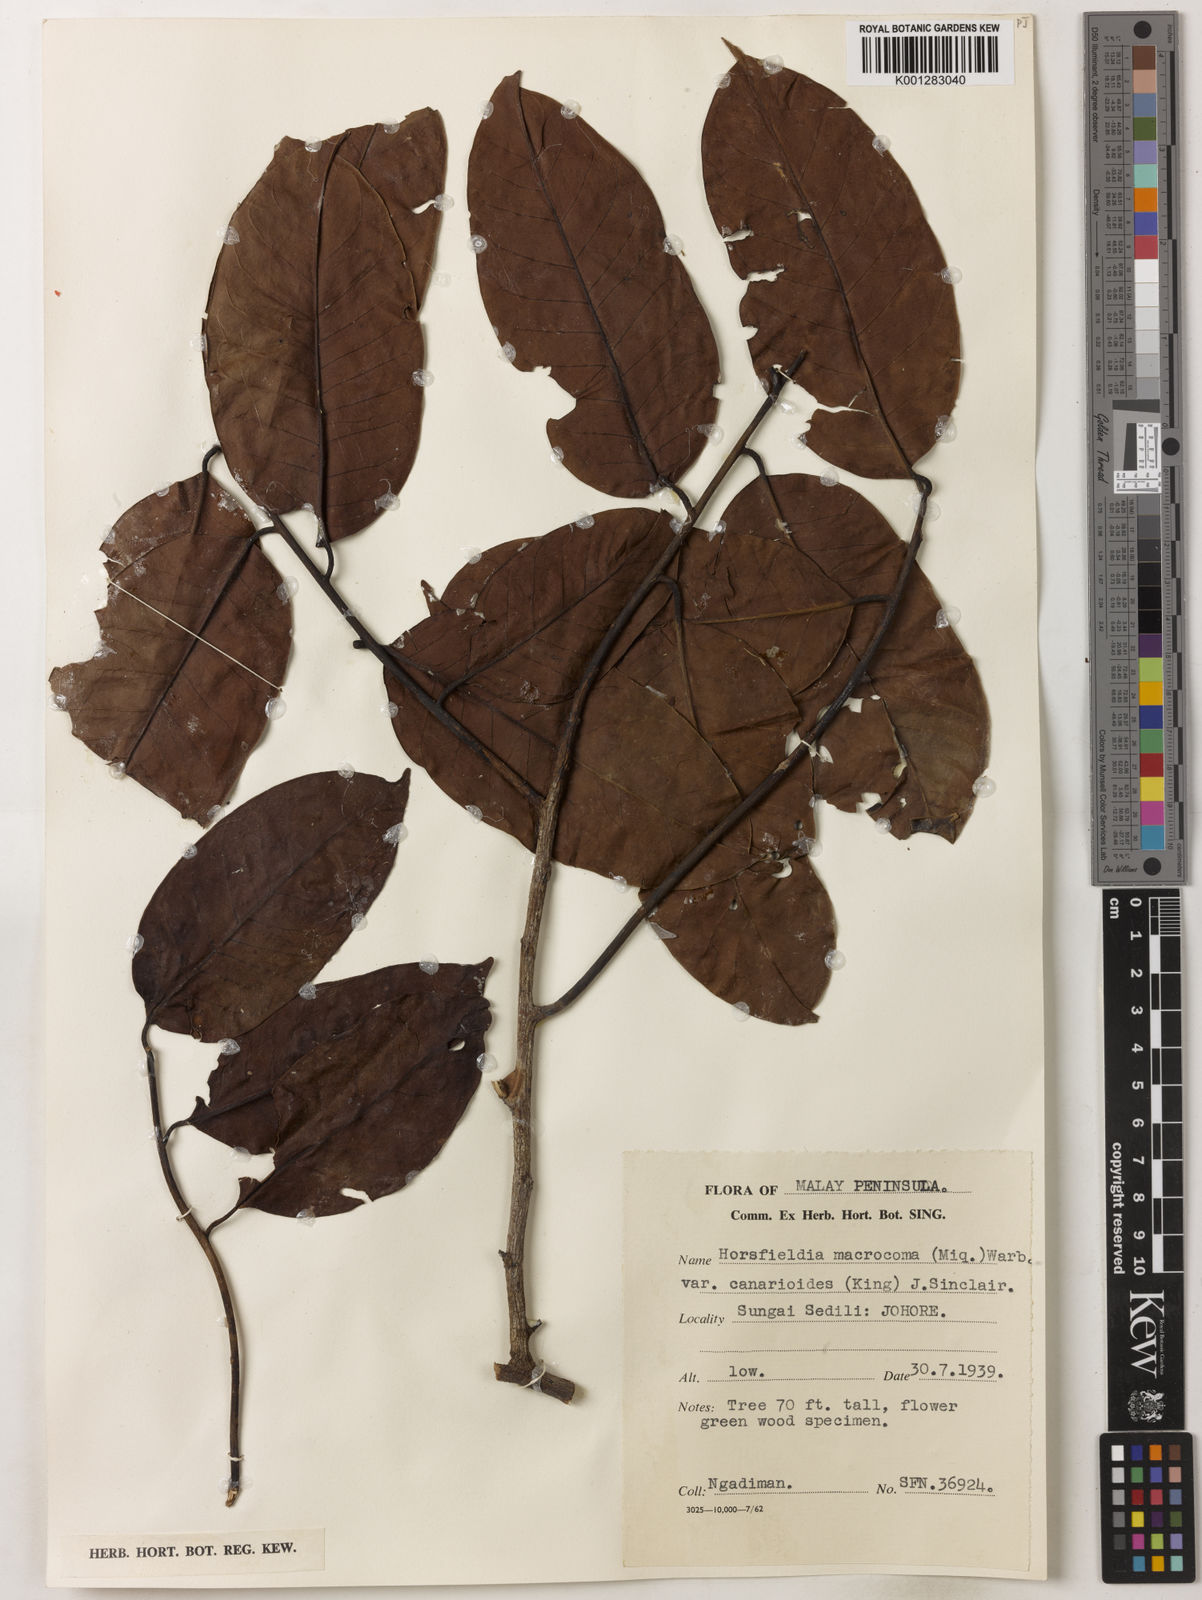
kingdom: Plantae
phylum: Tracheophyta
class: Magnoliopsida
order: Magnoliales
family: Myristicaceae
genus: Endocomia
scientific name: Endocomia canarioides
